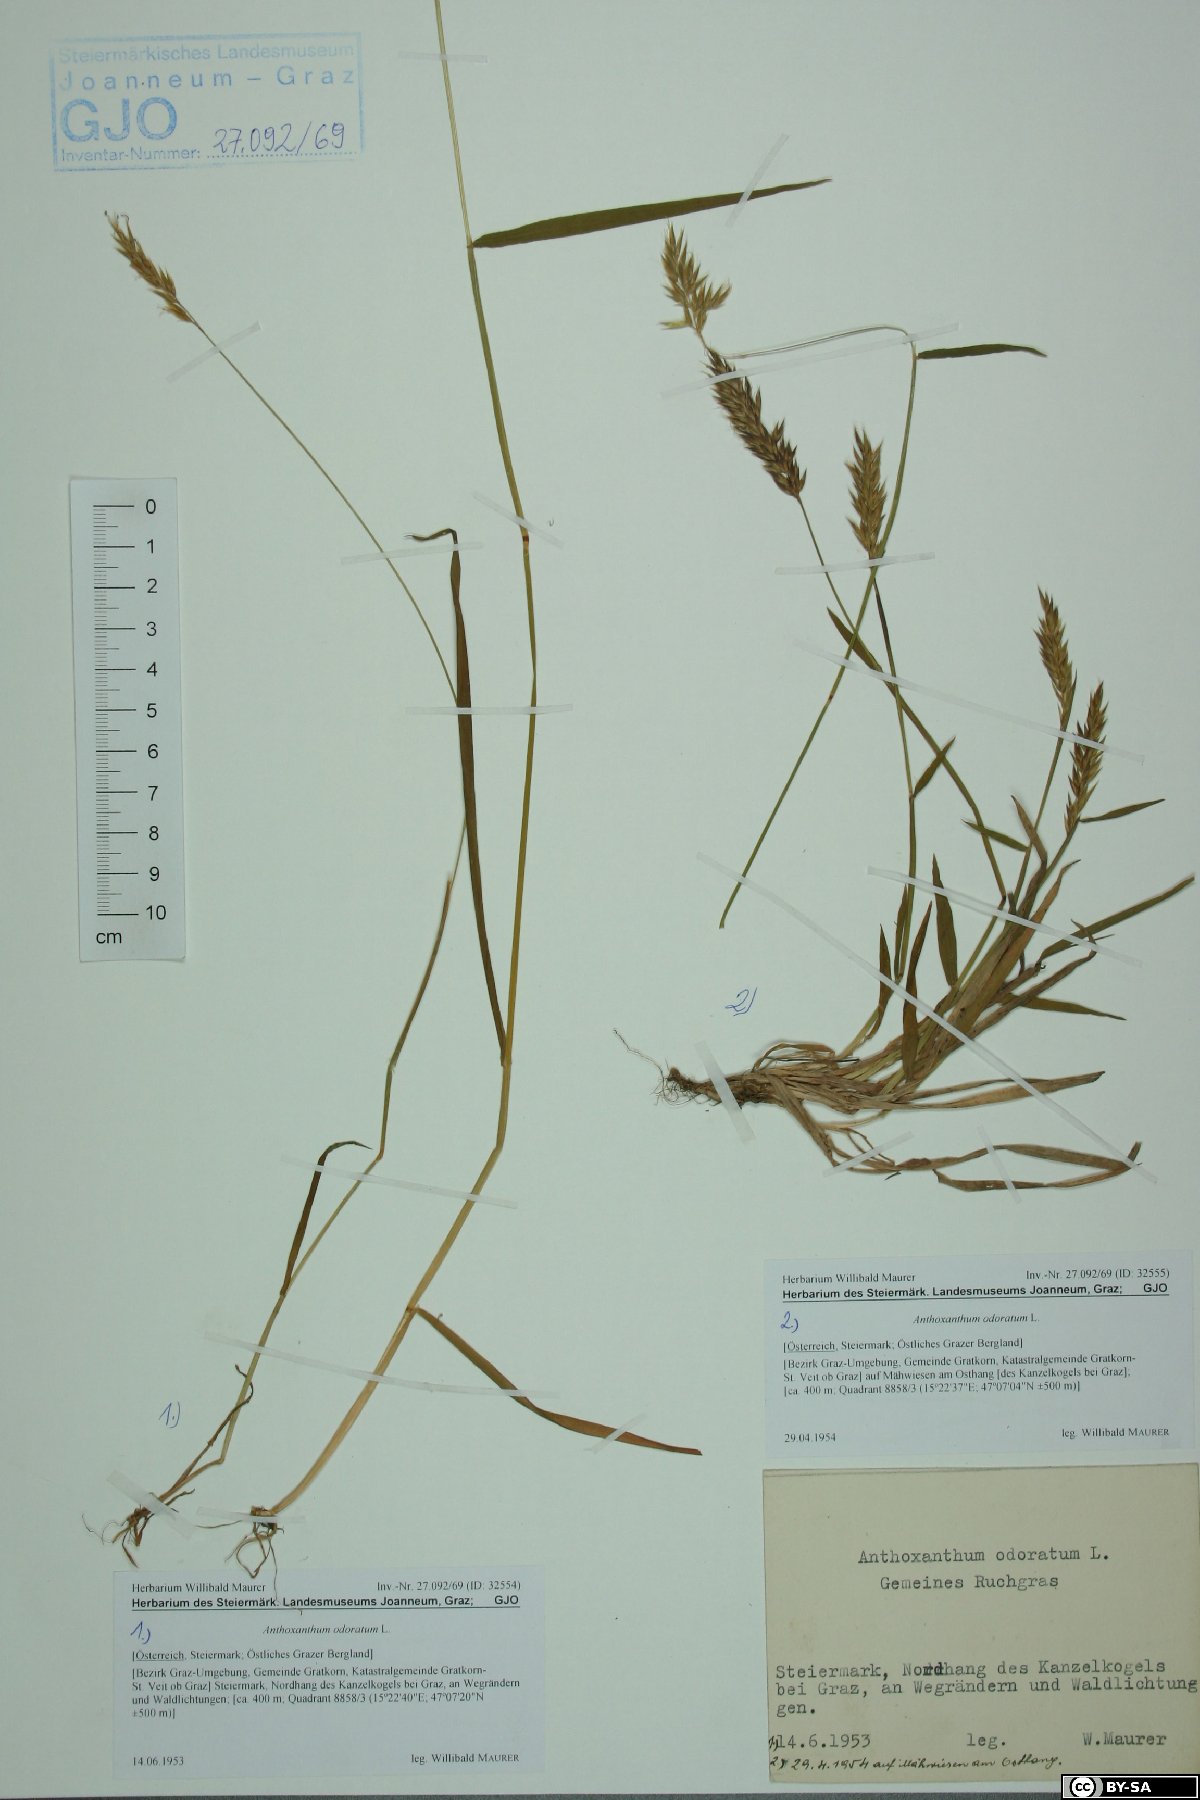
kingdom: Plantae
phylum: Tracheophyta
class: Liliopsida
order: Poales
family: Poaceae
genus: Anthoxanthum
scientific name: Anthoxanthum odoratum
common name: Sweet vernalgrass
